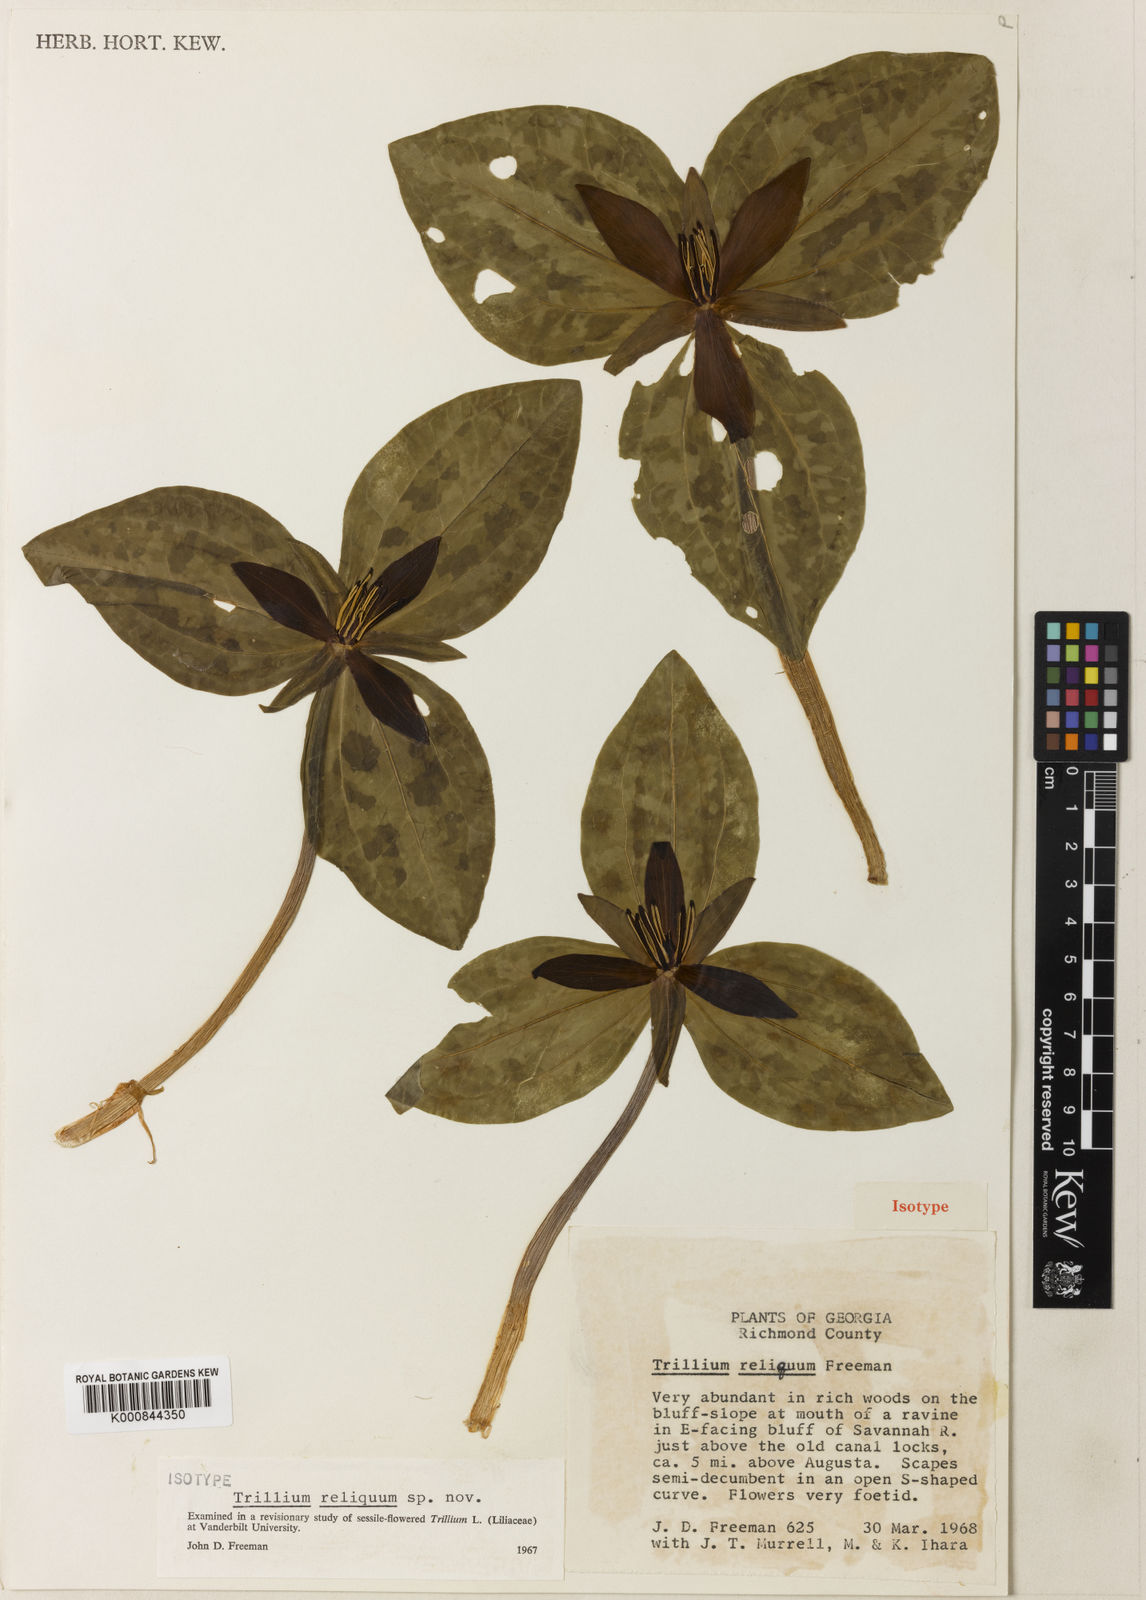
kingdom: Plantae
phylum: Tracheophyta
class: Liliopsida
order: Liliales
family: Melanthiaceae
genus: Trillium
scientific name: Trillium reliquum
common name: Relict trillium
